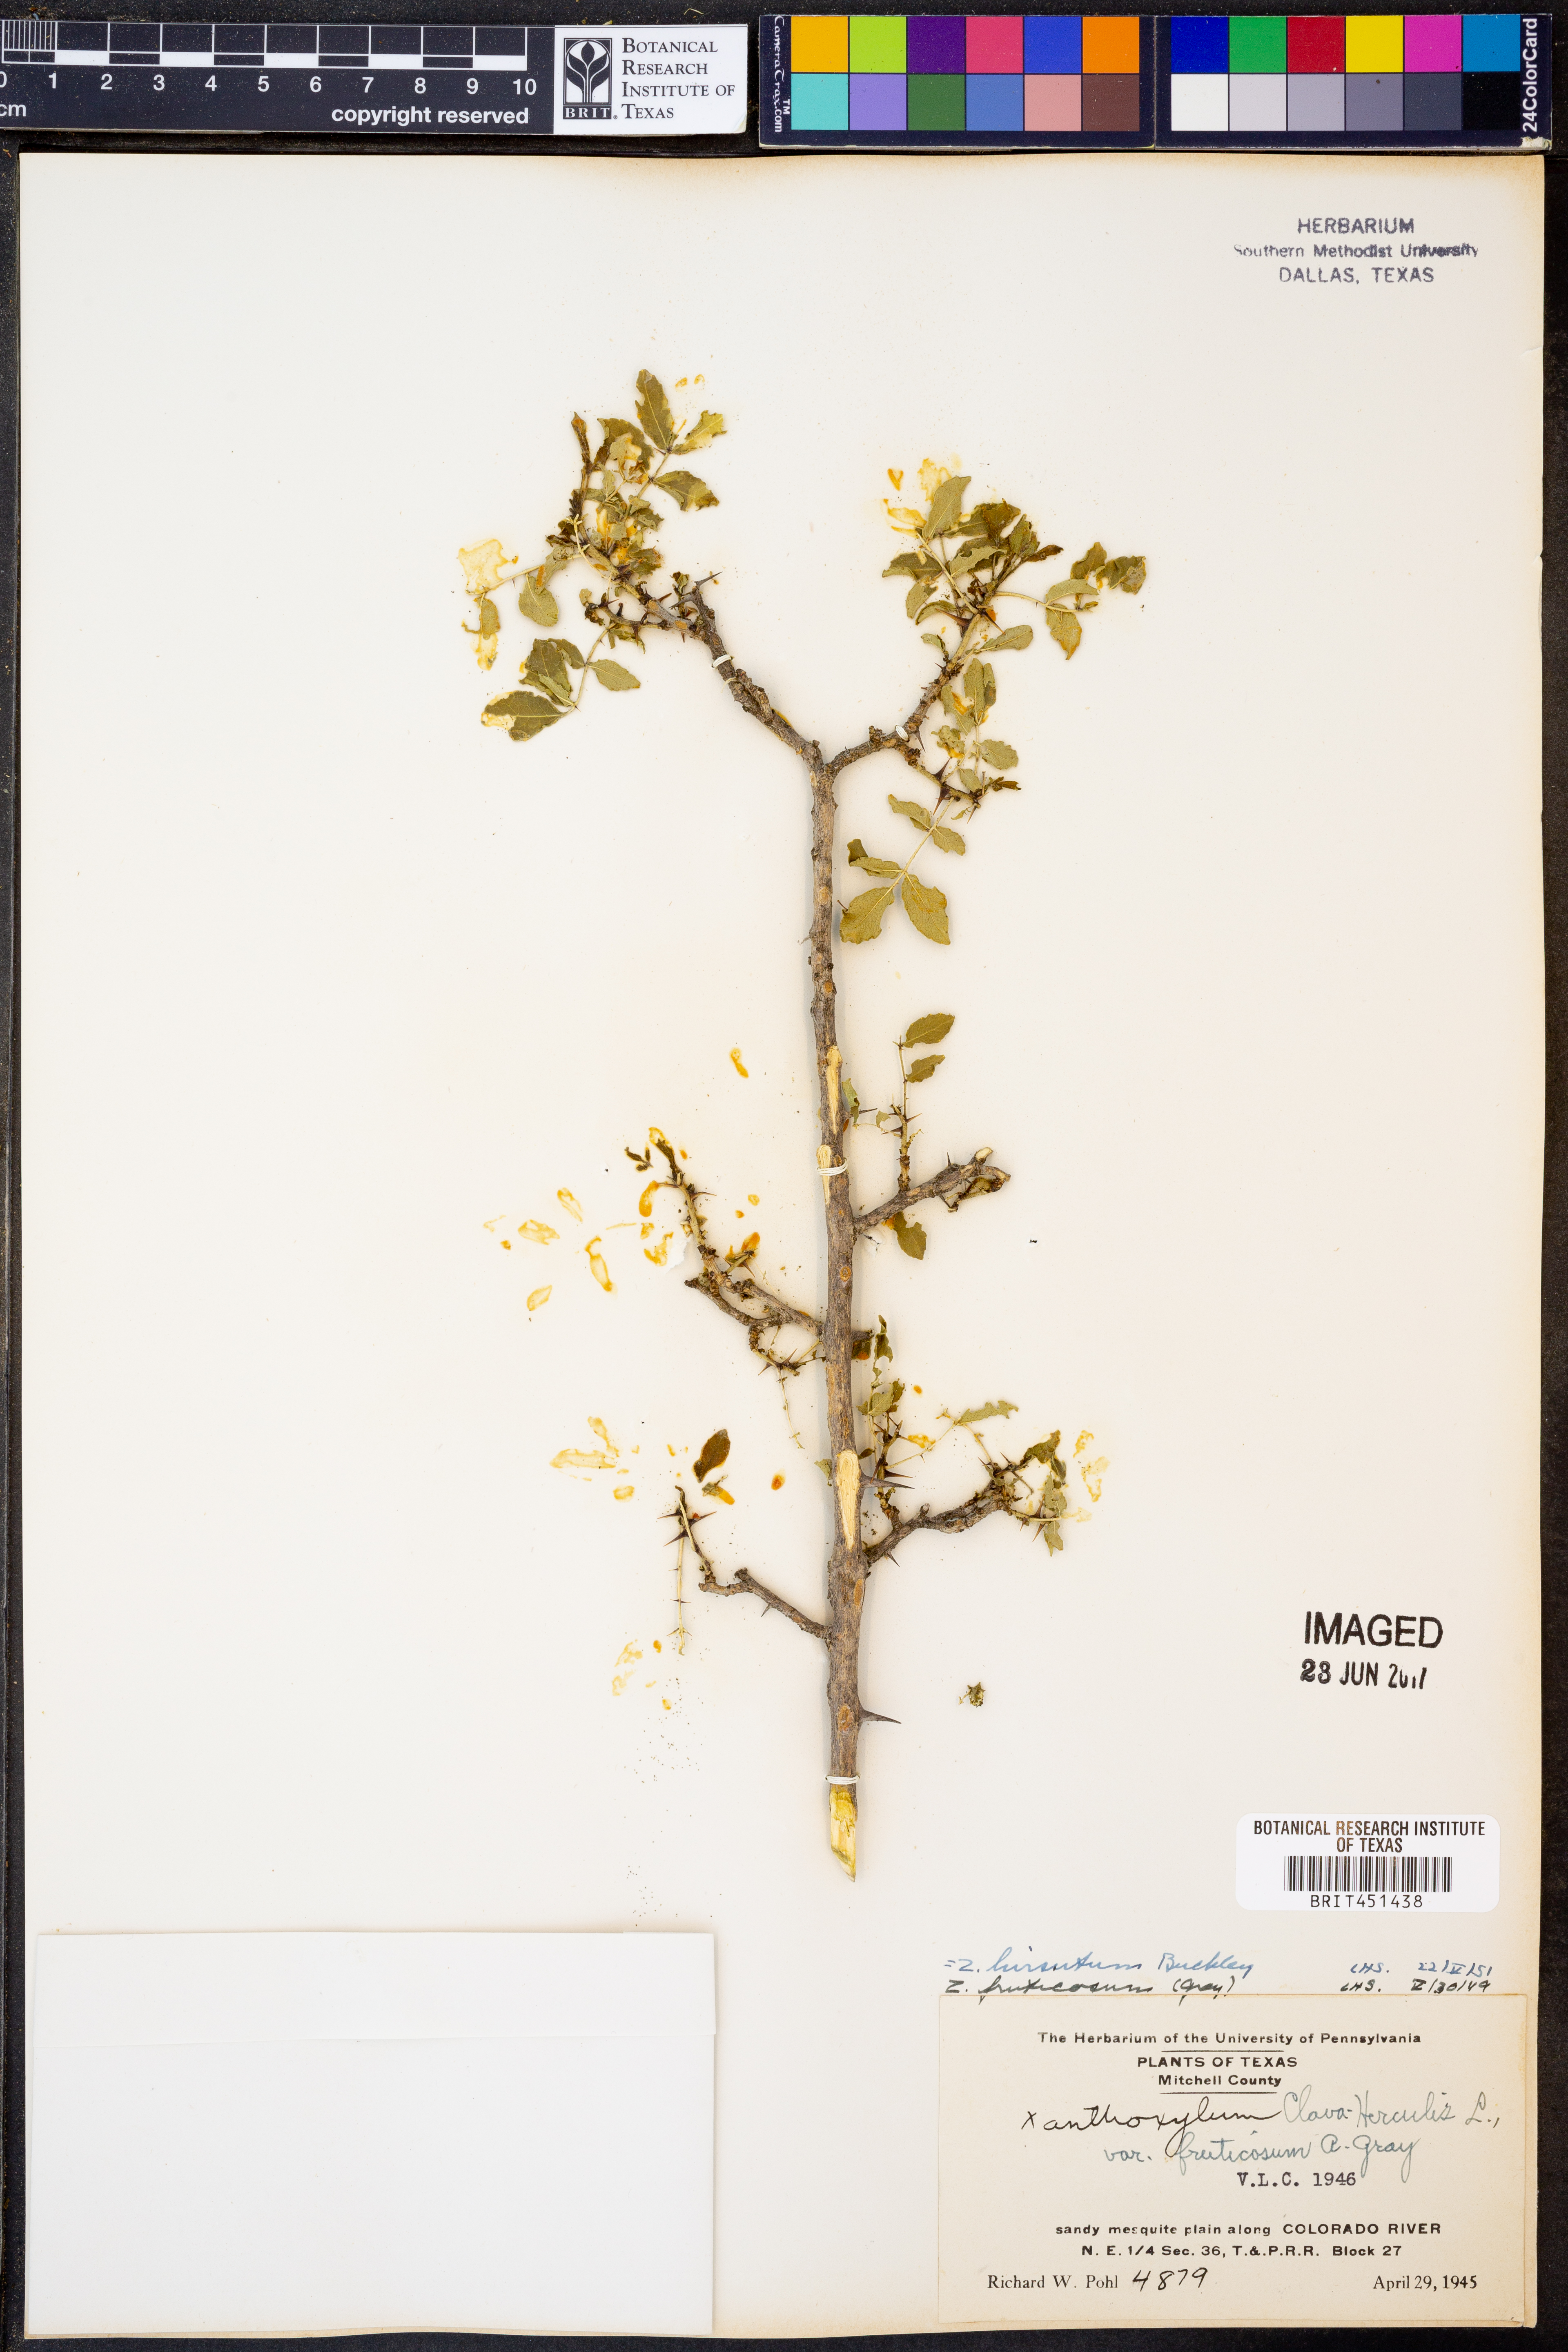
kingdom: Plantae
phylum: Tracheophyta
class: Magnoliopsida
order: Sapindales
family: Rutaceae
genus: Zanthoxylum
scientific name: Zanthoxylum clava-herculis
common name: Hercules'-club
